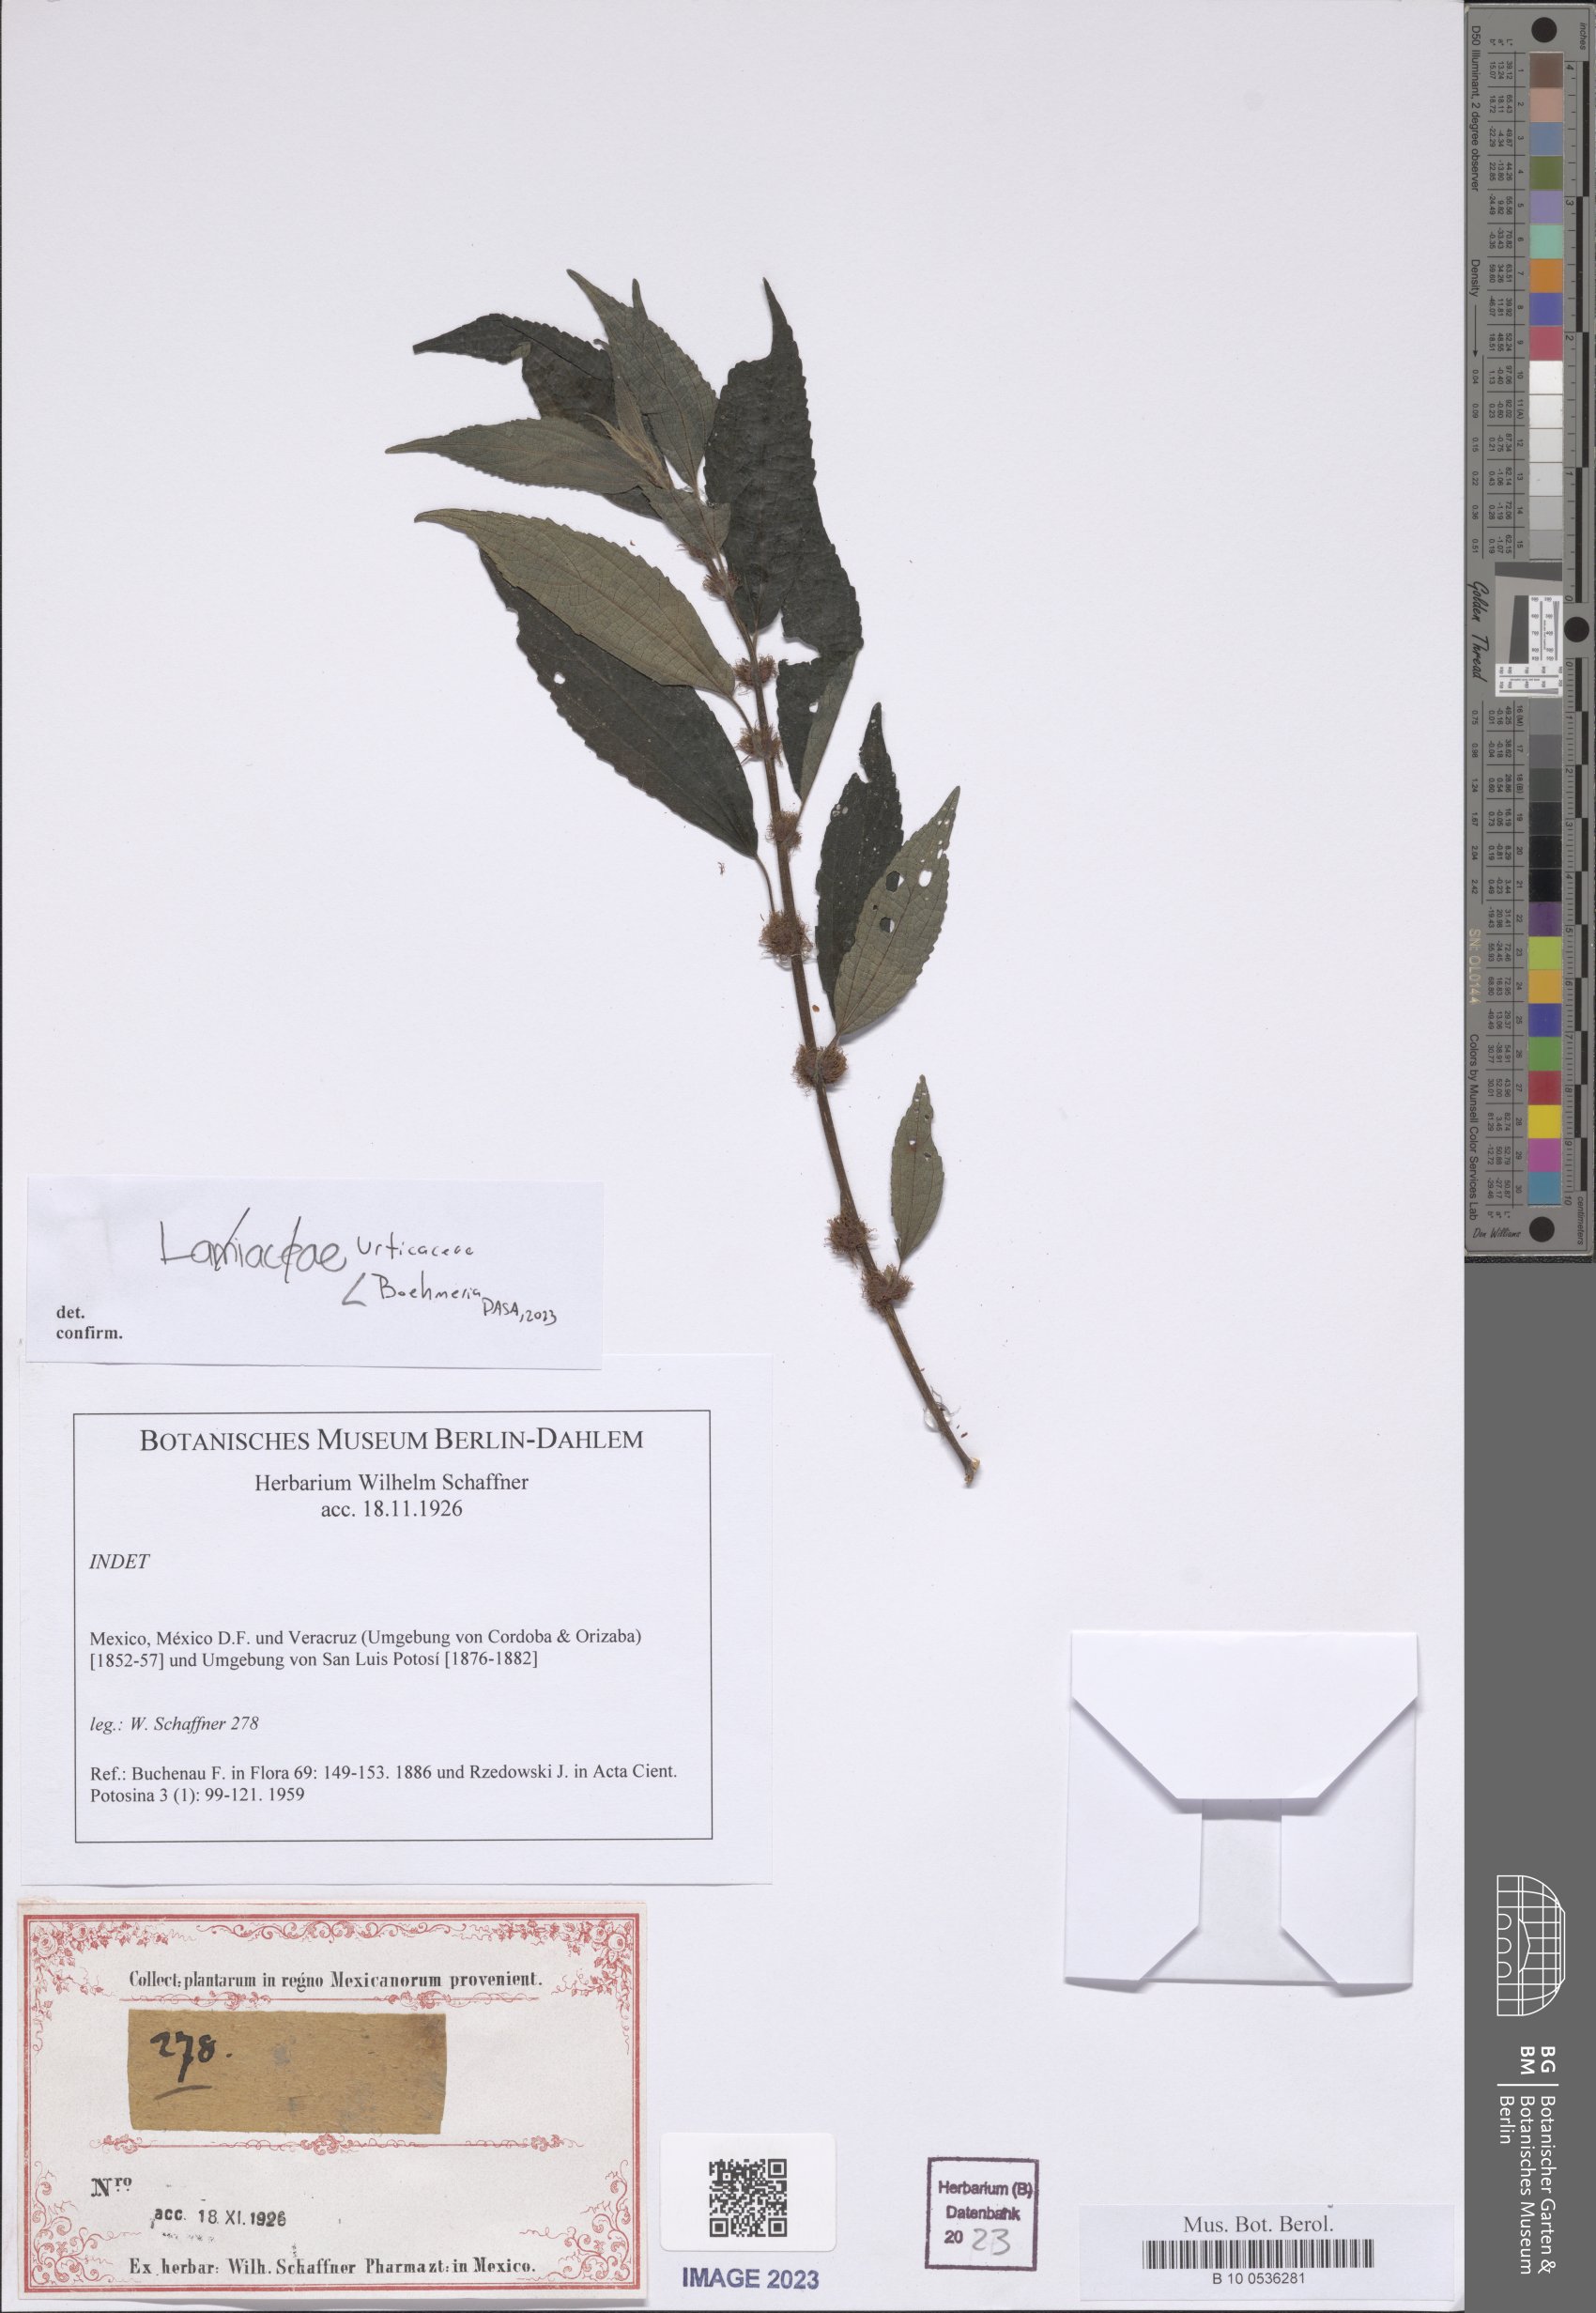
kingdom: Plantae
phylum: Tracheophyta
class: Magnoliopsida
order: Rosales
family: Urticaceae
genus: Boehmeria
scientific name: Boehmeria
